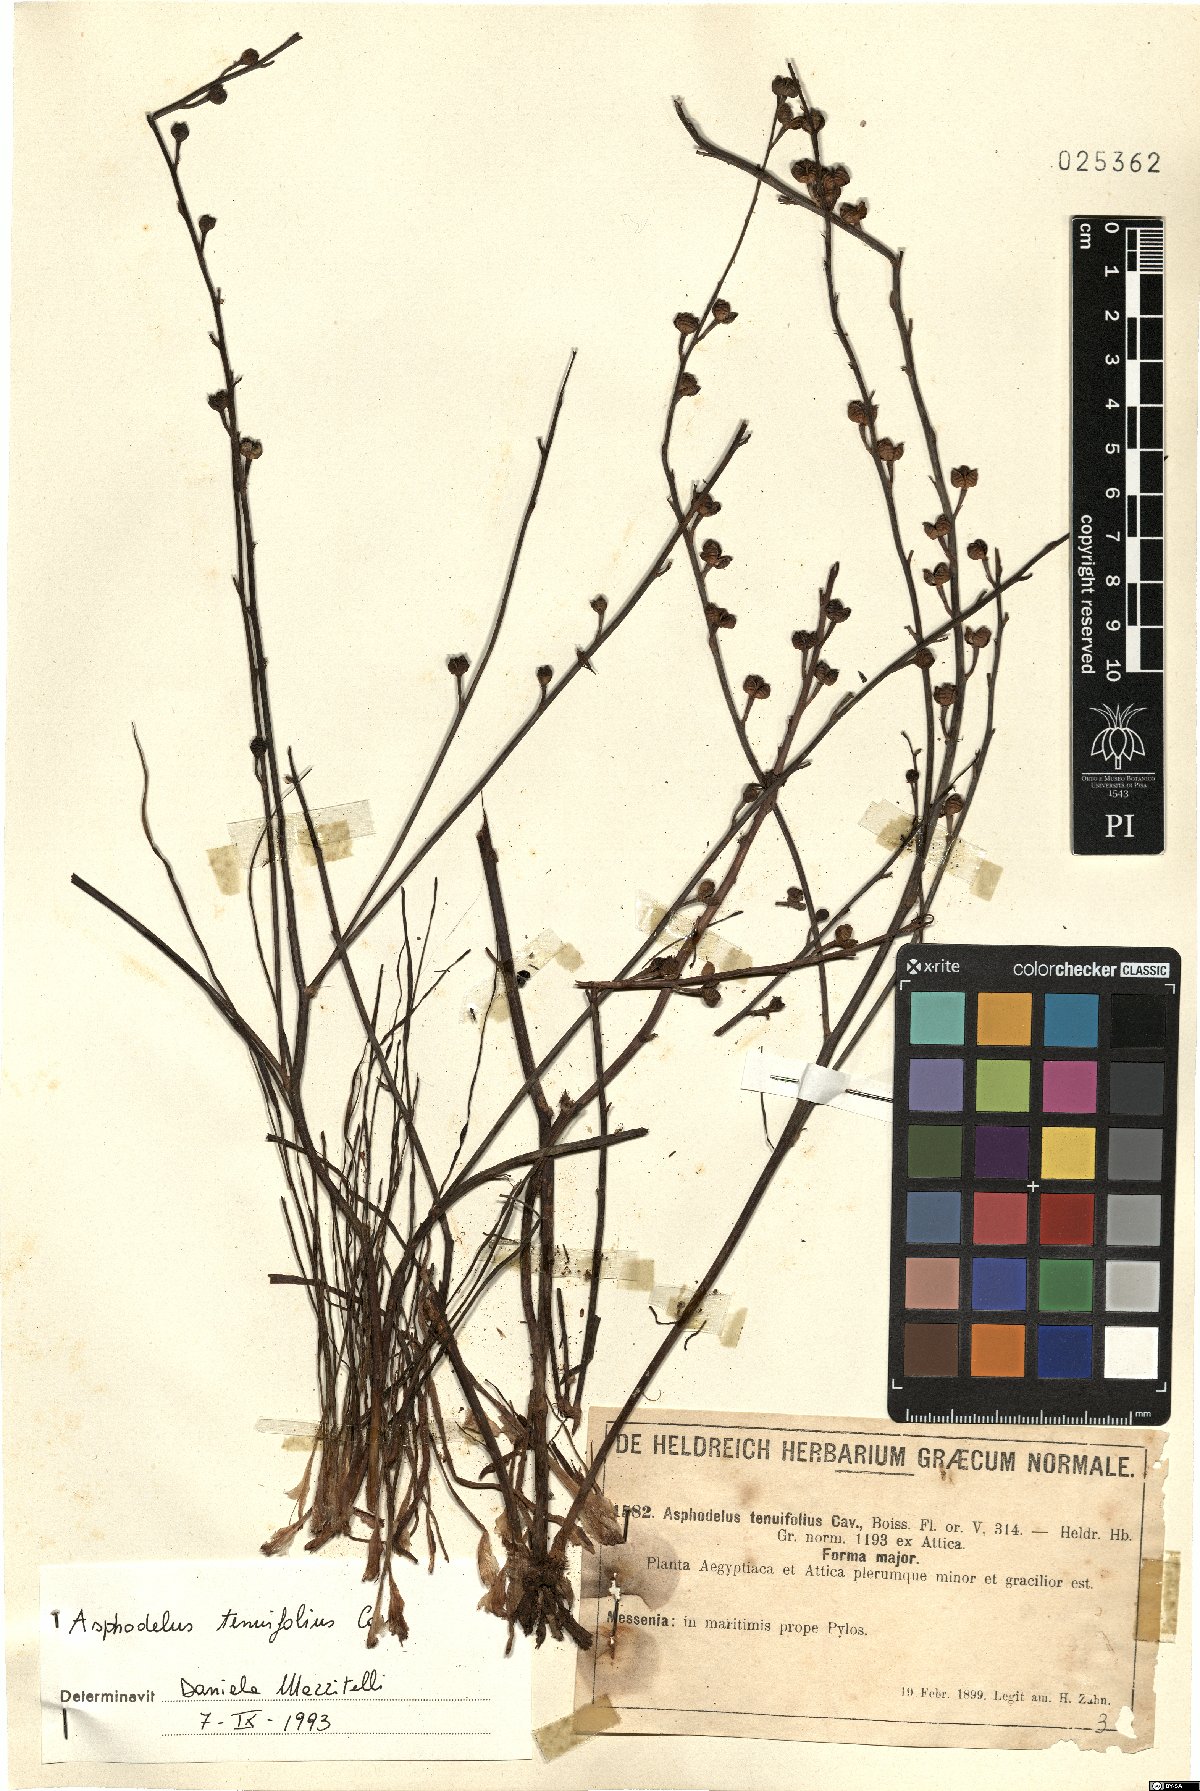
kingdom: Plantae
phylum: Tracheophyta
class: Liliopsida
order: Asparagales
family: Asphodelaceae
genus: Asphodelus
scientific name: Asphodelus tenuifolius
